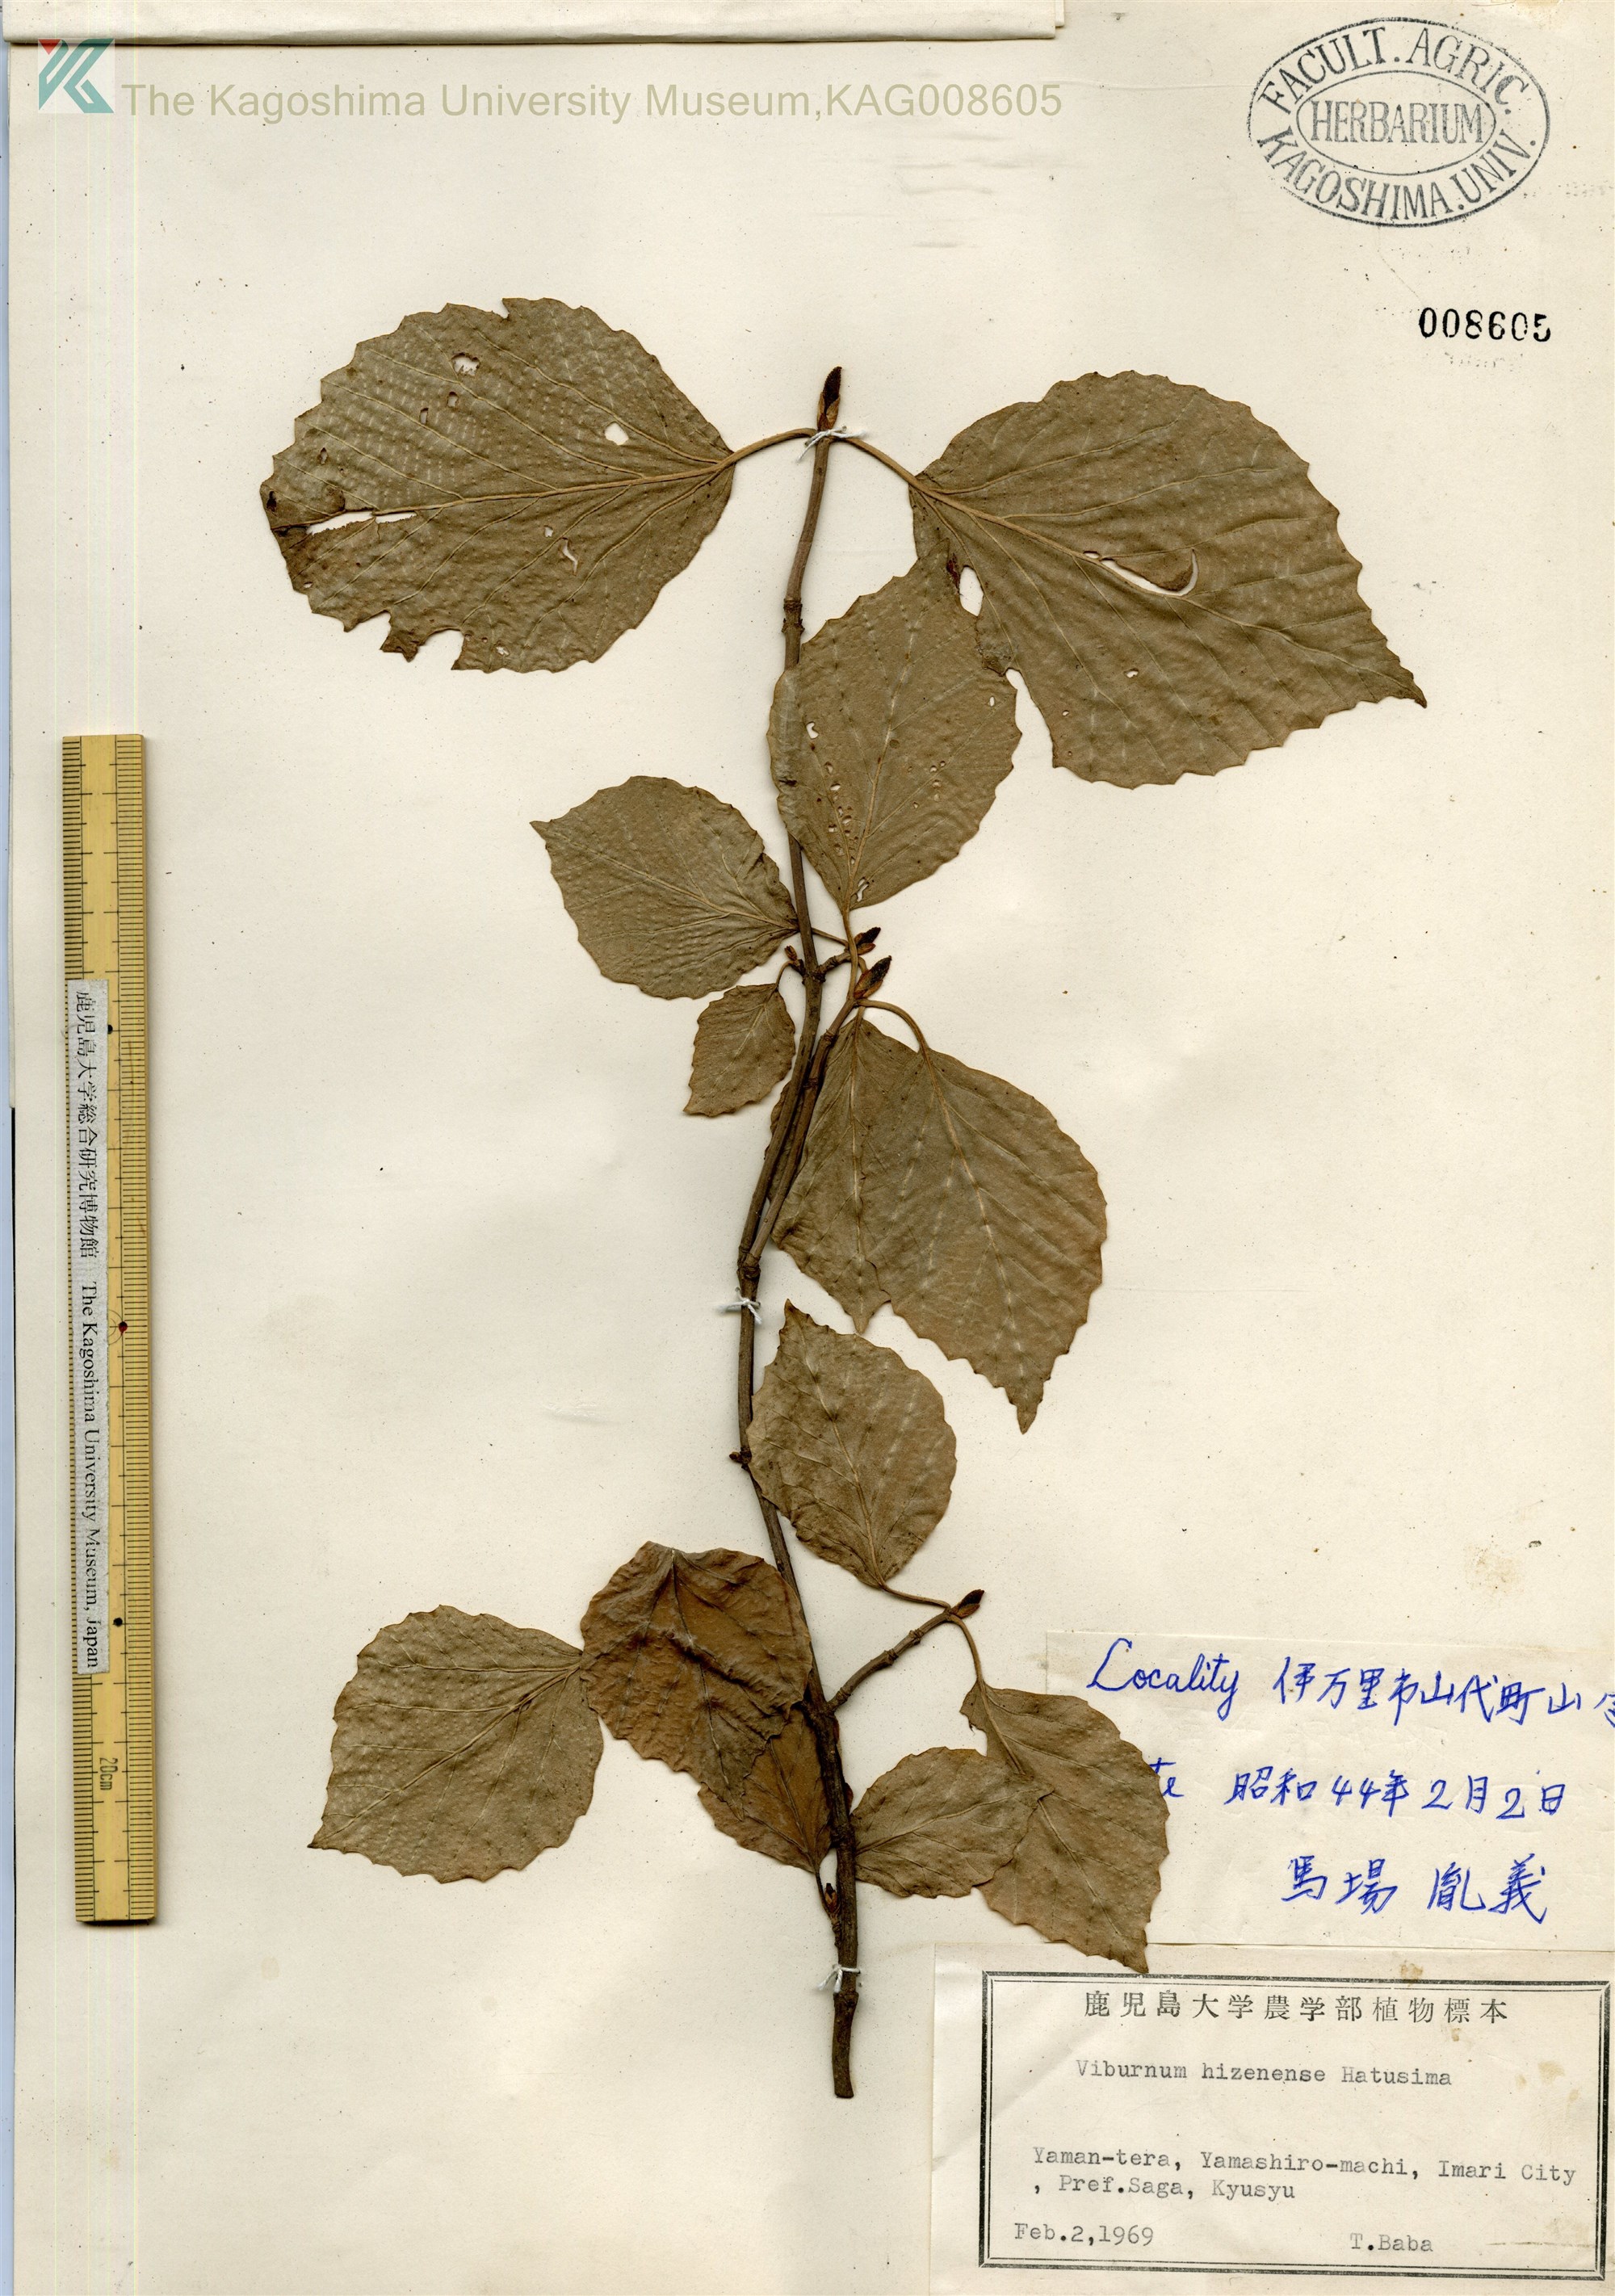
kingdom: Plantae
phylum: Tracheophyta
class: Magnoliopsida
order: Dipsacales
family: Viburnaceae
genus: Viburnum
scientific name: Viburnum hizenense
